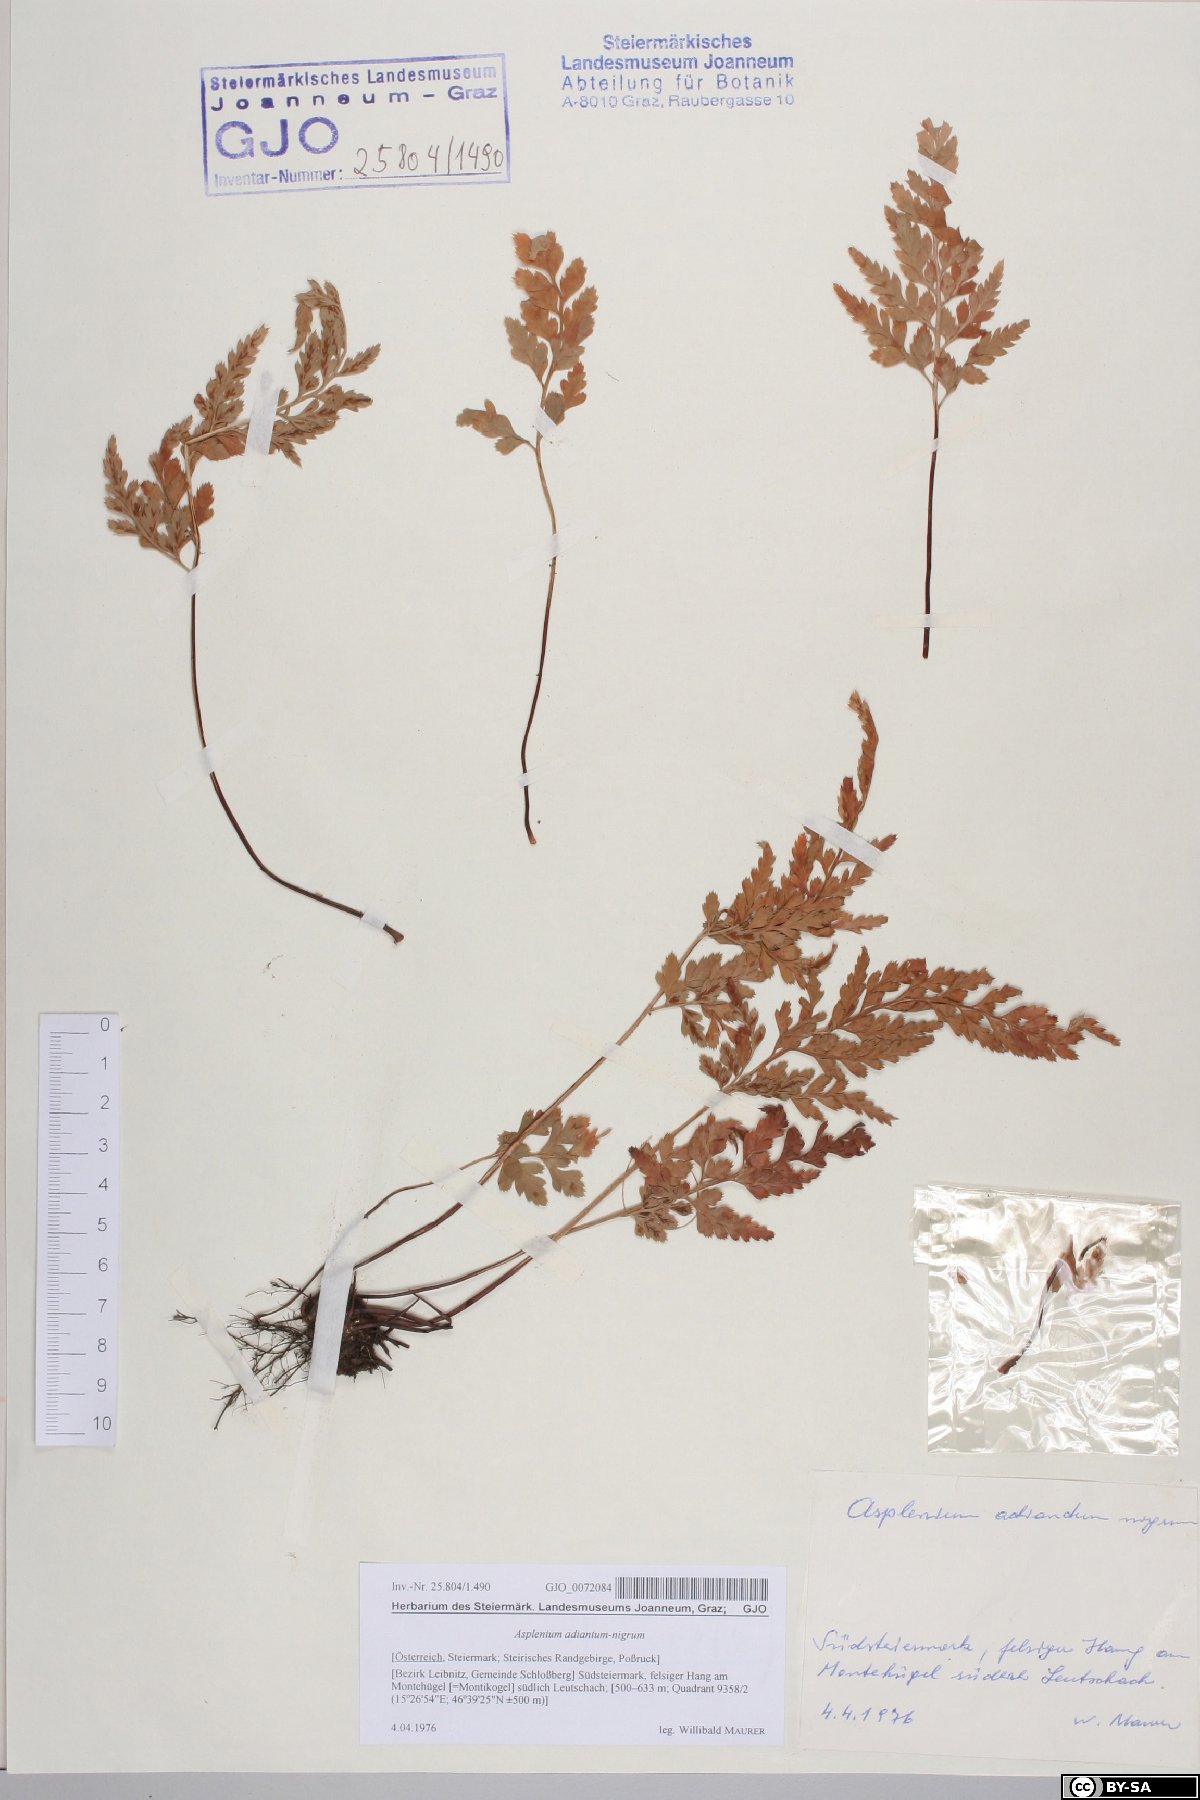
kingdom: Plantae
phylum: Tracheophyta
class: Polypodiopsida
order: Polypodiales
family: Aspleniaceae
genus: Asplenium
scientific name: Asplenium adiantum-nigrum
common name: Black spleenwort
